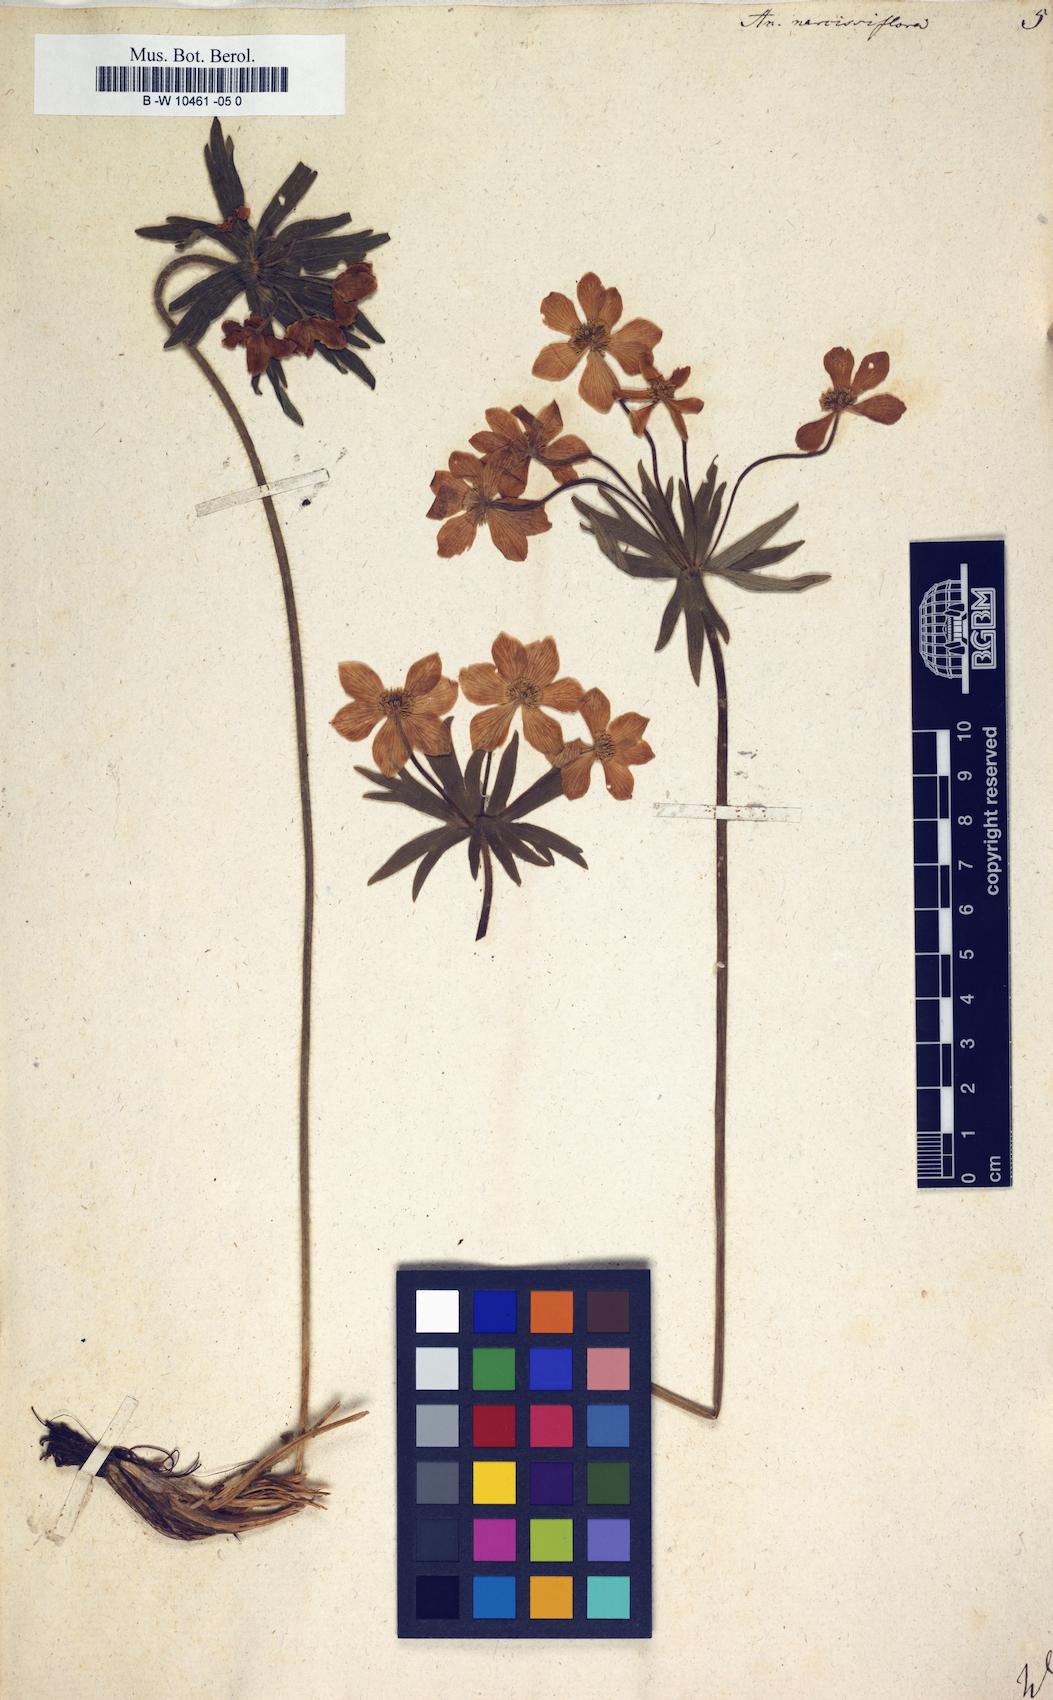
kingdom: Plantae
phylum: Tracheophyta
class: Magnoliopsida
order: Ranunculales
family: Ranunculaceae
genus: Anemonastrum
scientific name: Anemonastrum narcissiflorum
